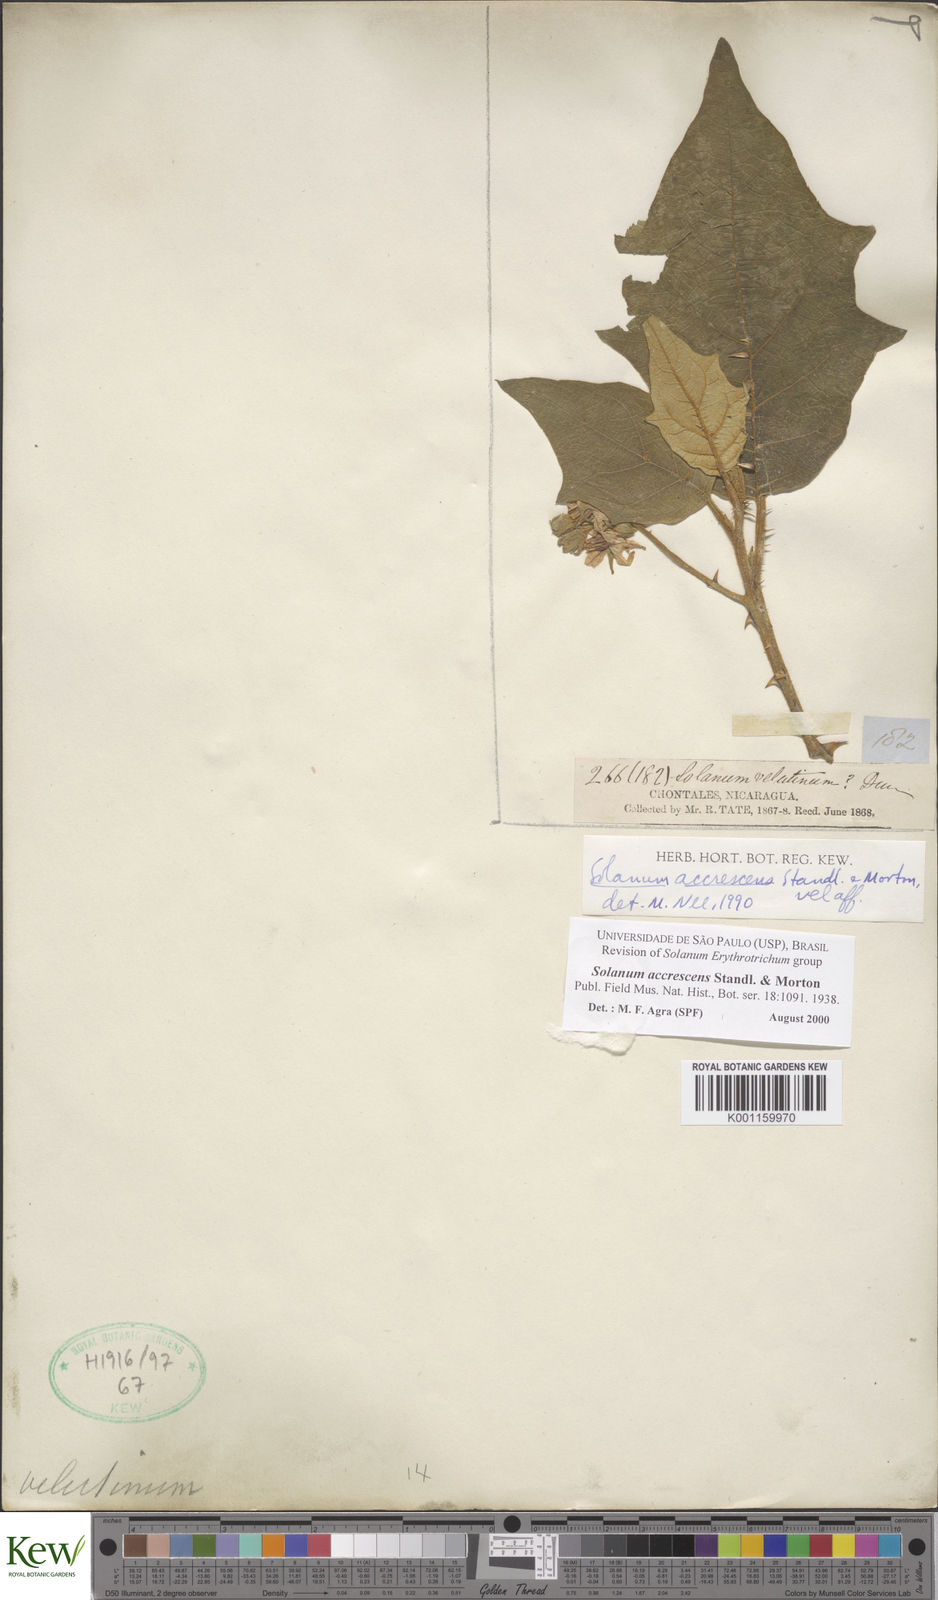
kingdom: Plantae
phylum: Tracheophyta
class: Magnoliopsida
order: Solanales
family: Solanaceae
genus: Solanum
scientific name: Solanum accrescens
